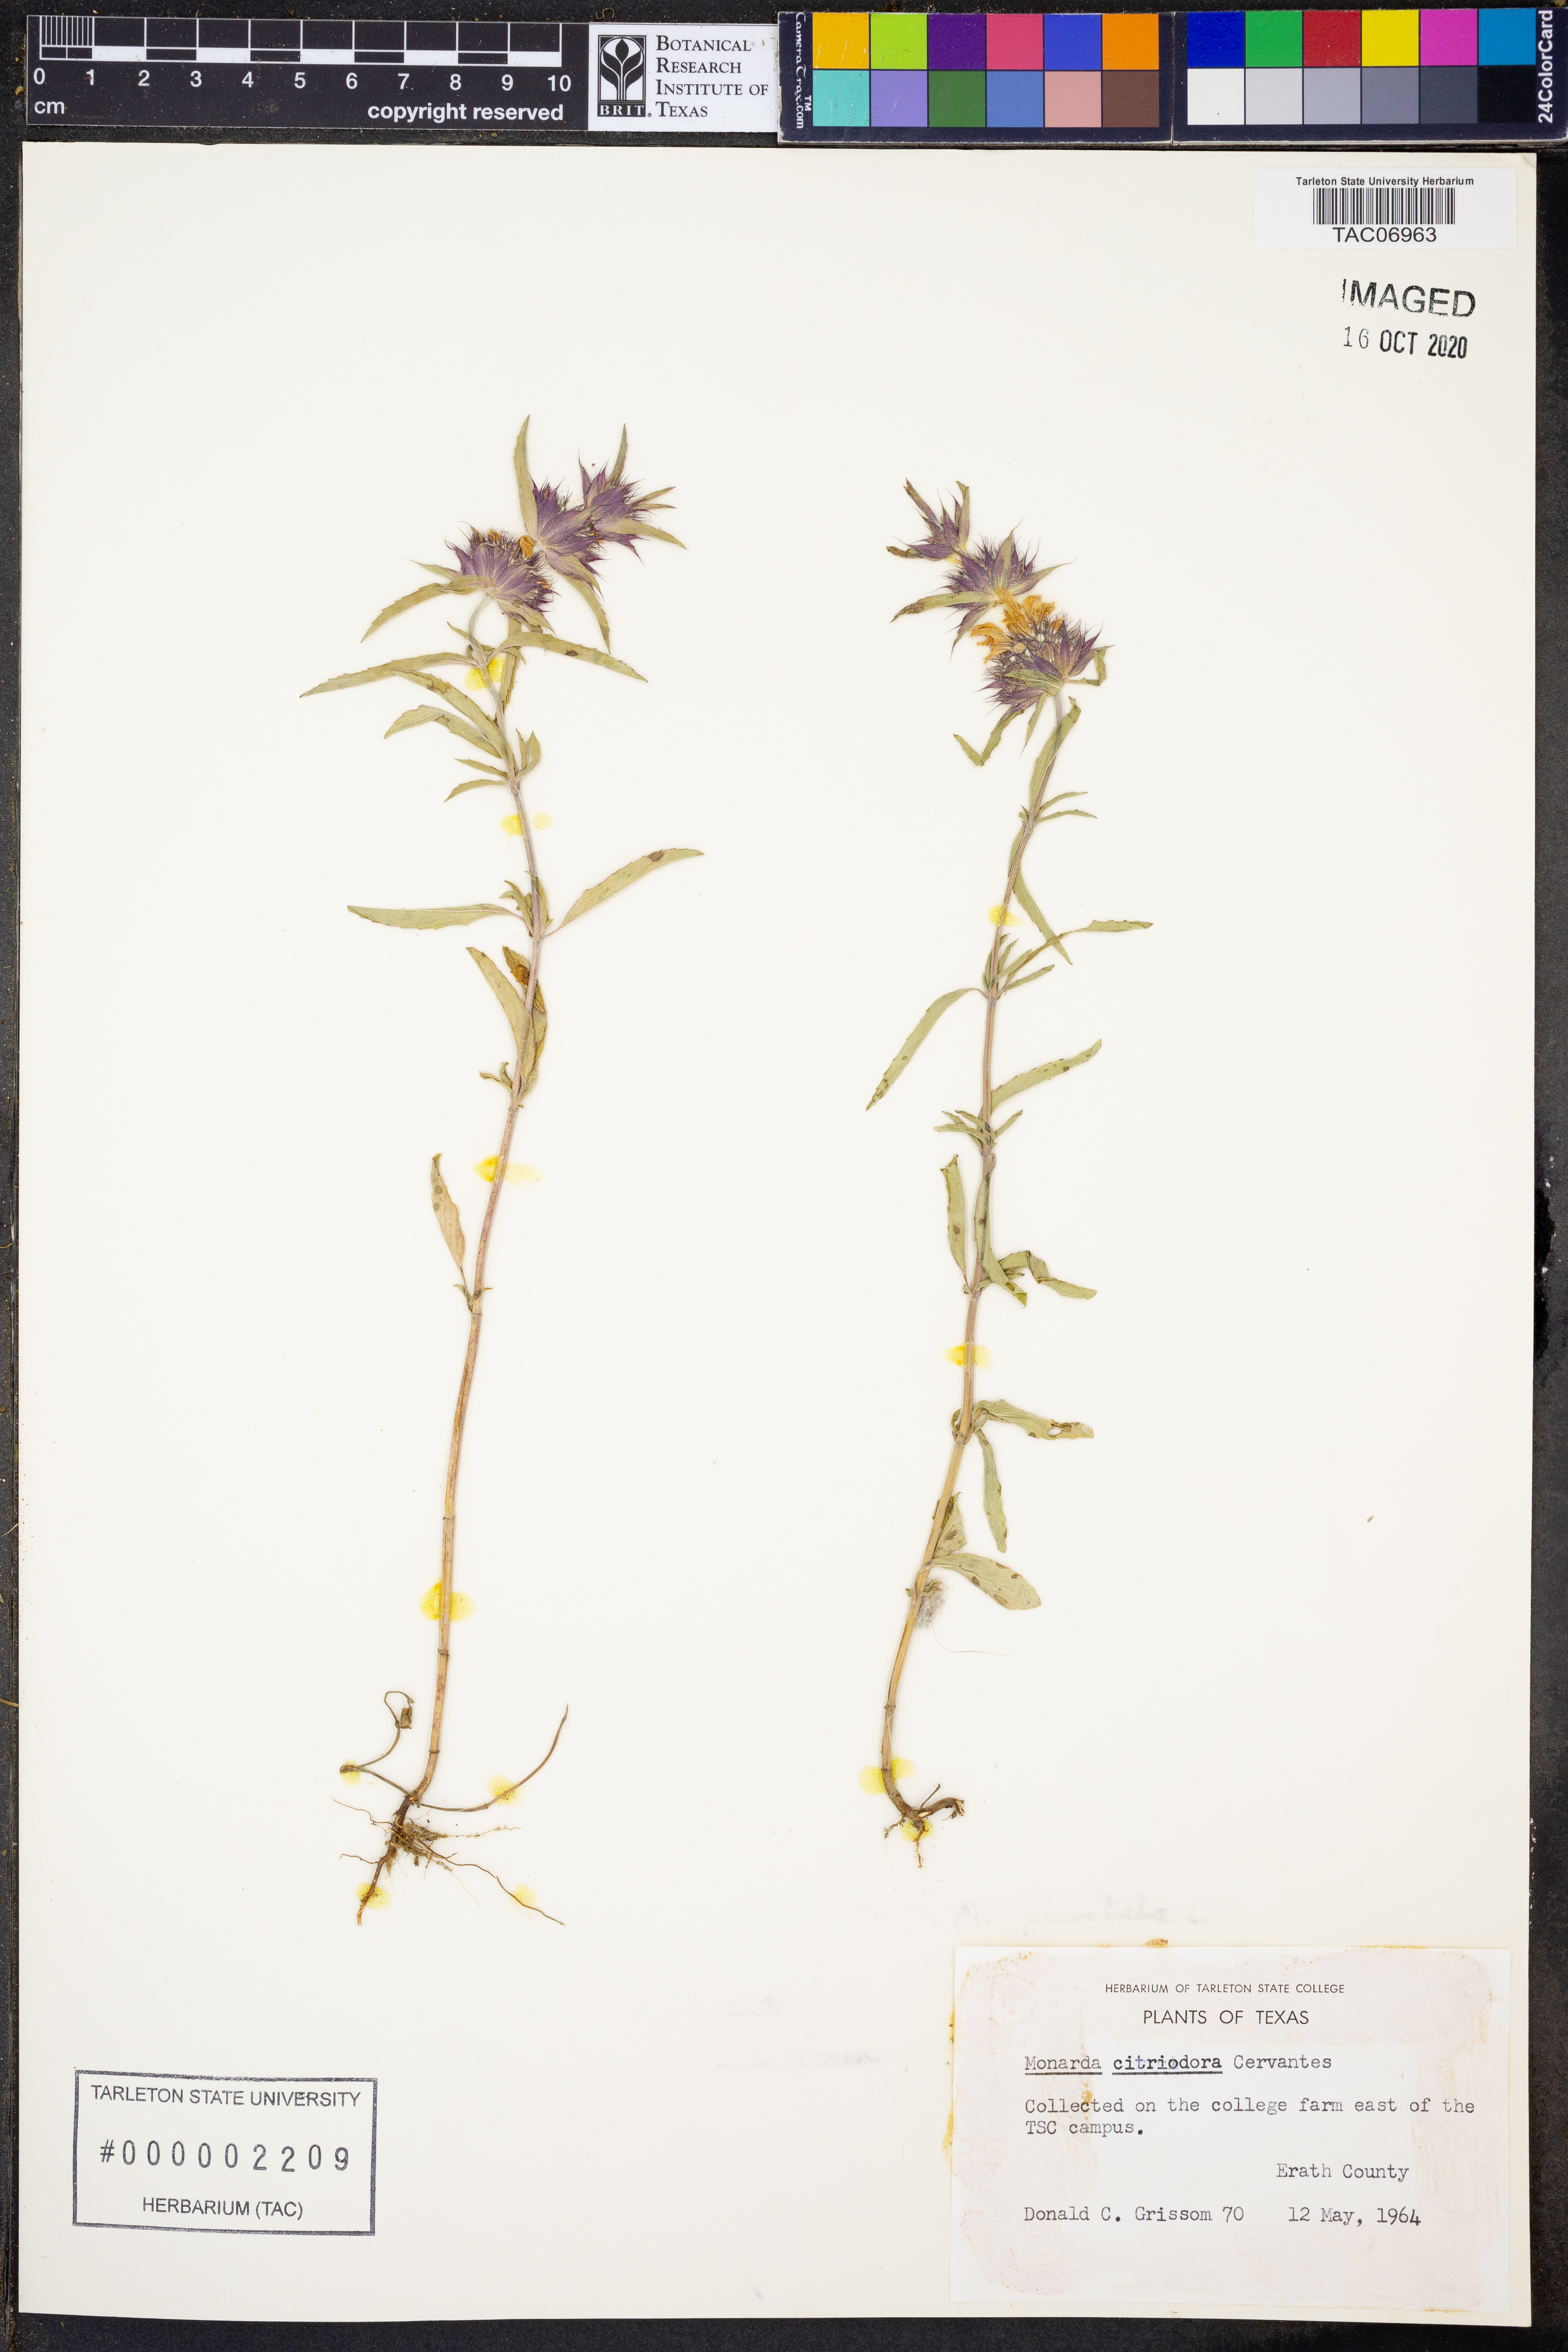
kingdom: Plantae
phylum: Tracheophyta
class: Magnoliopsida
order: Lamiales
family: Lamiaceae
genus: Monarda
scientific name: Monarda citriodora
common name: Lemon beebalm
